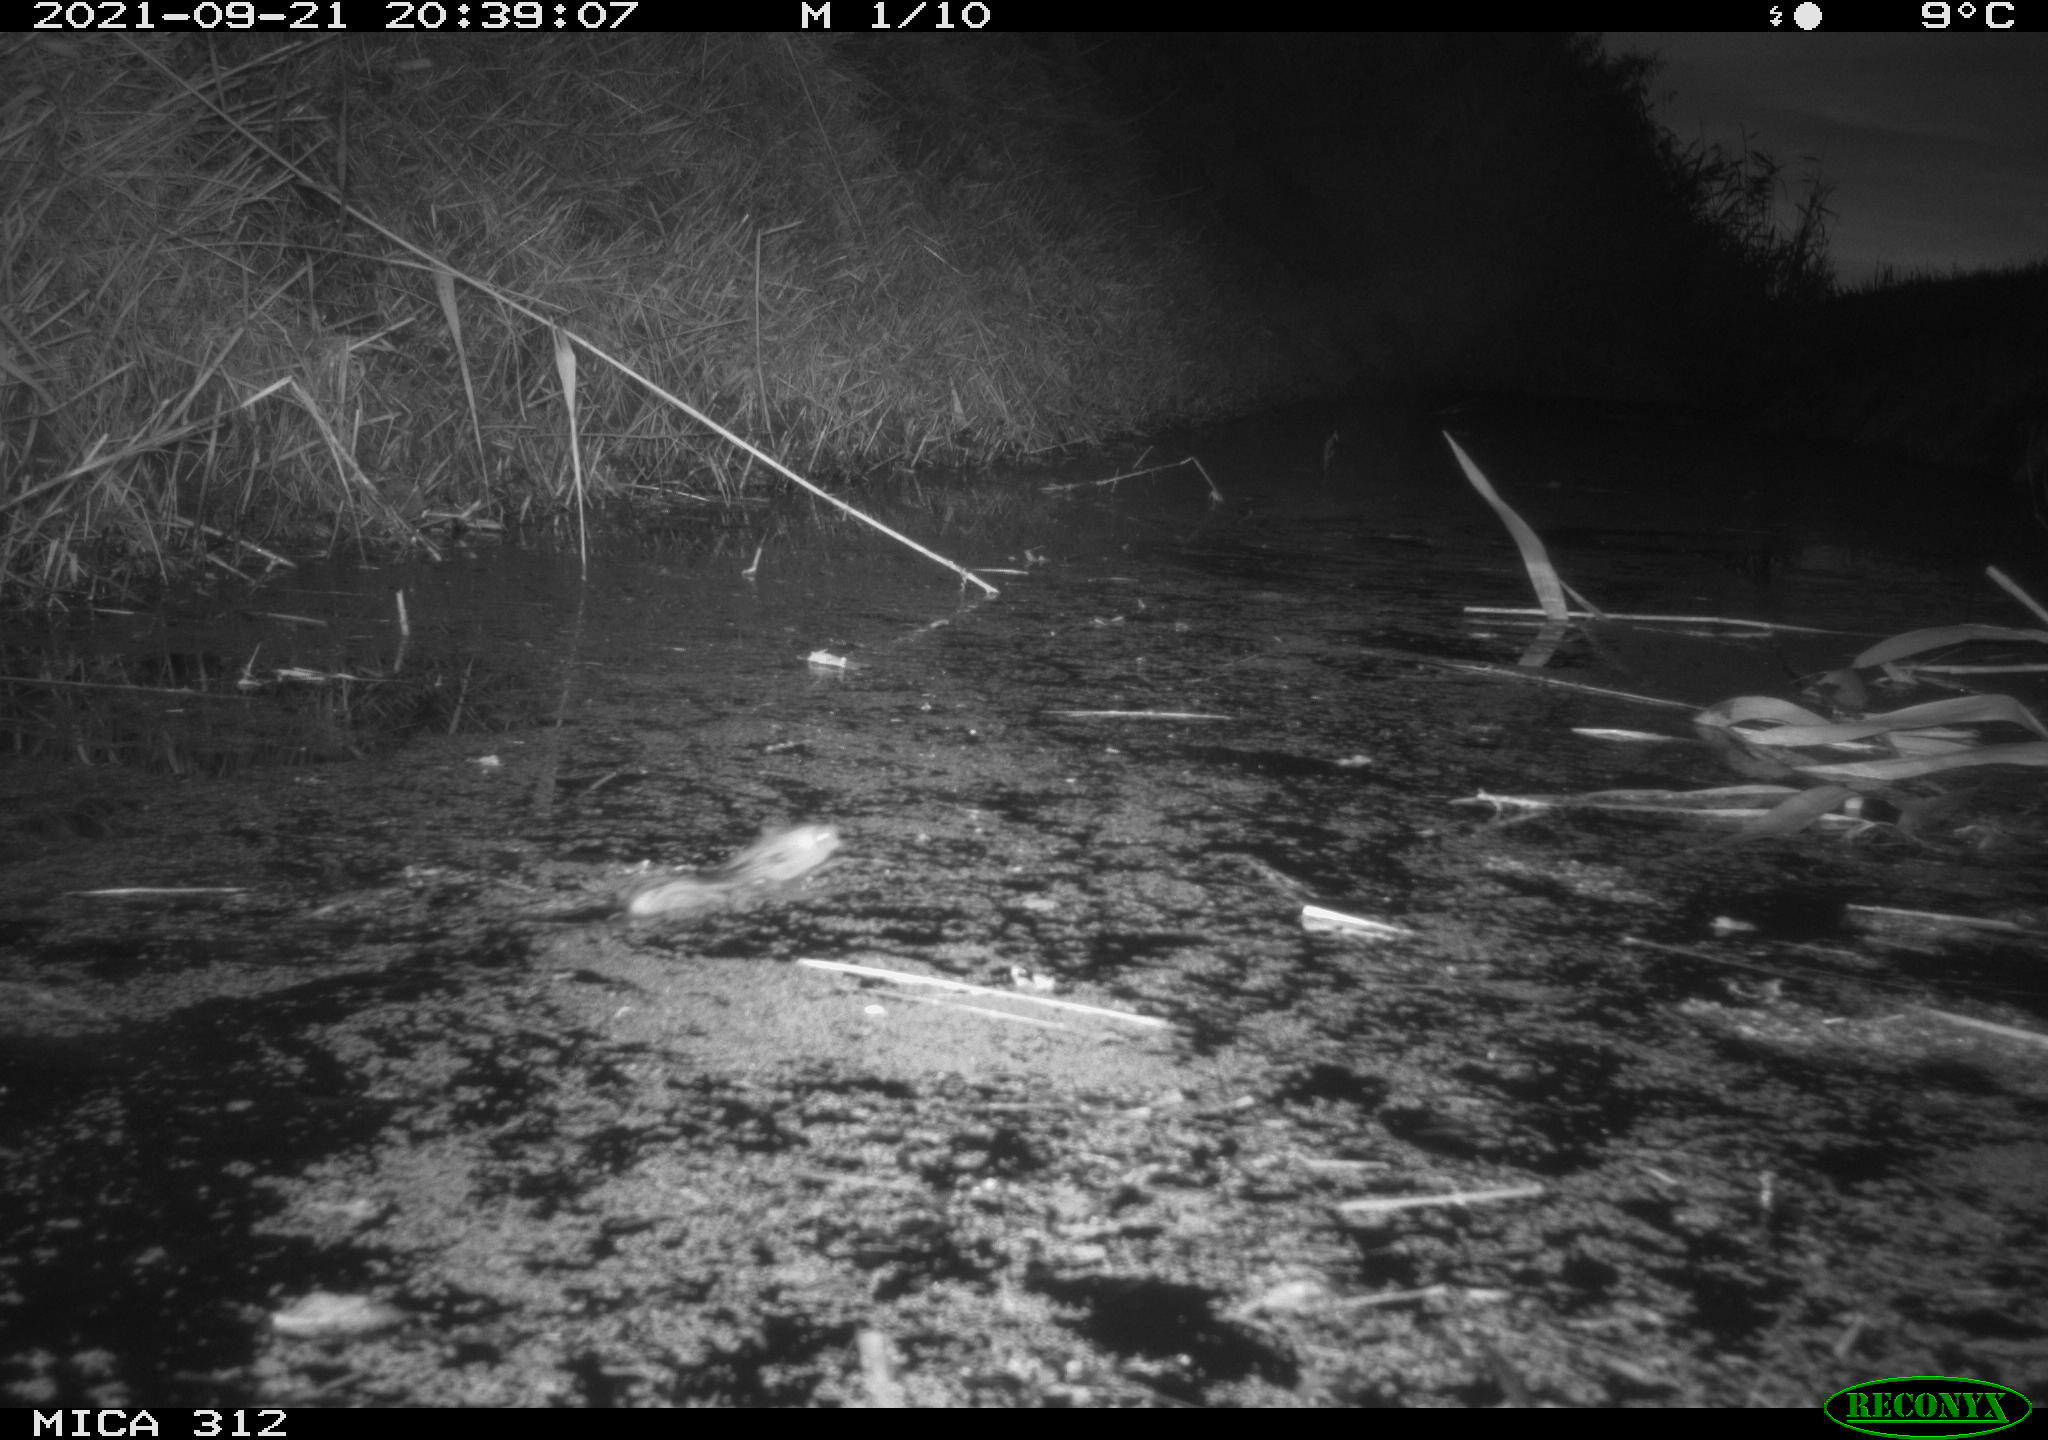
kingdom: Animalia
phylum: Chordata
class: Mammalia
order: Rodentia
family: Muridae
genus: Rattus
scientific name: Rattus norvegicus
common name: Brown rat
